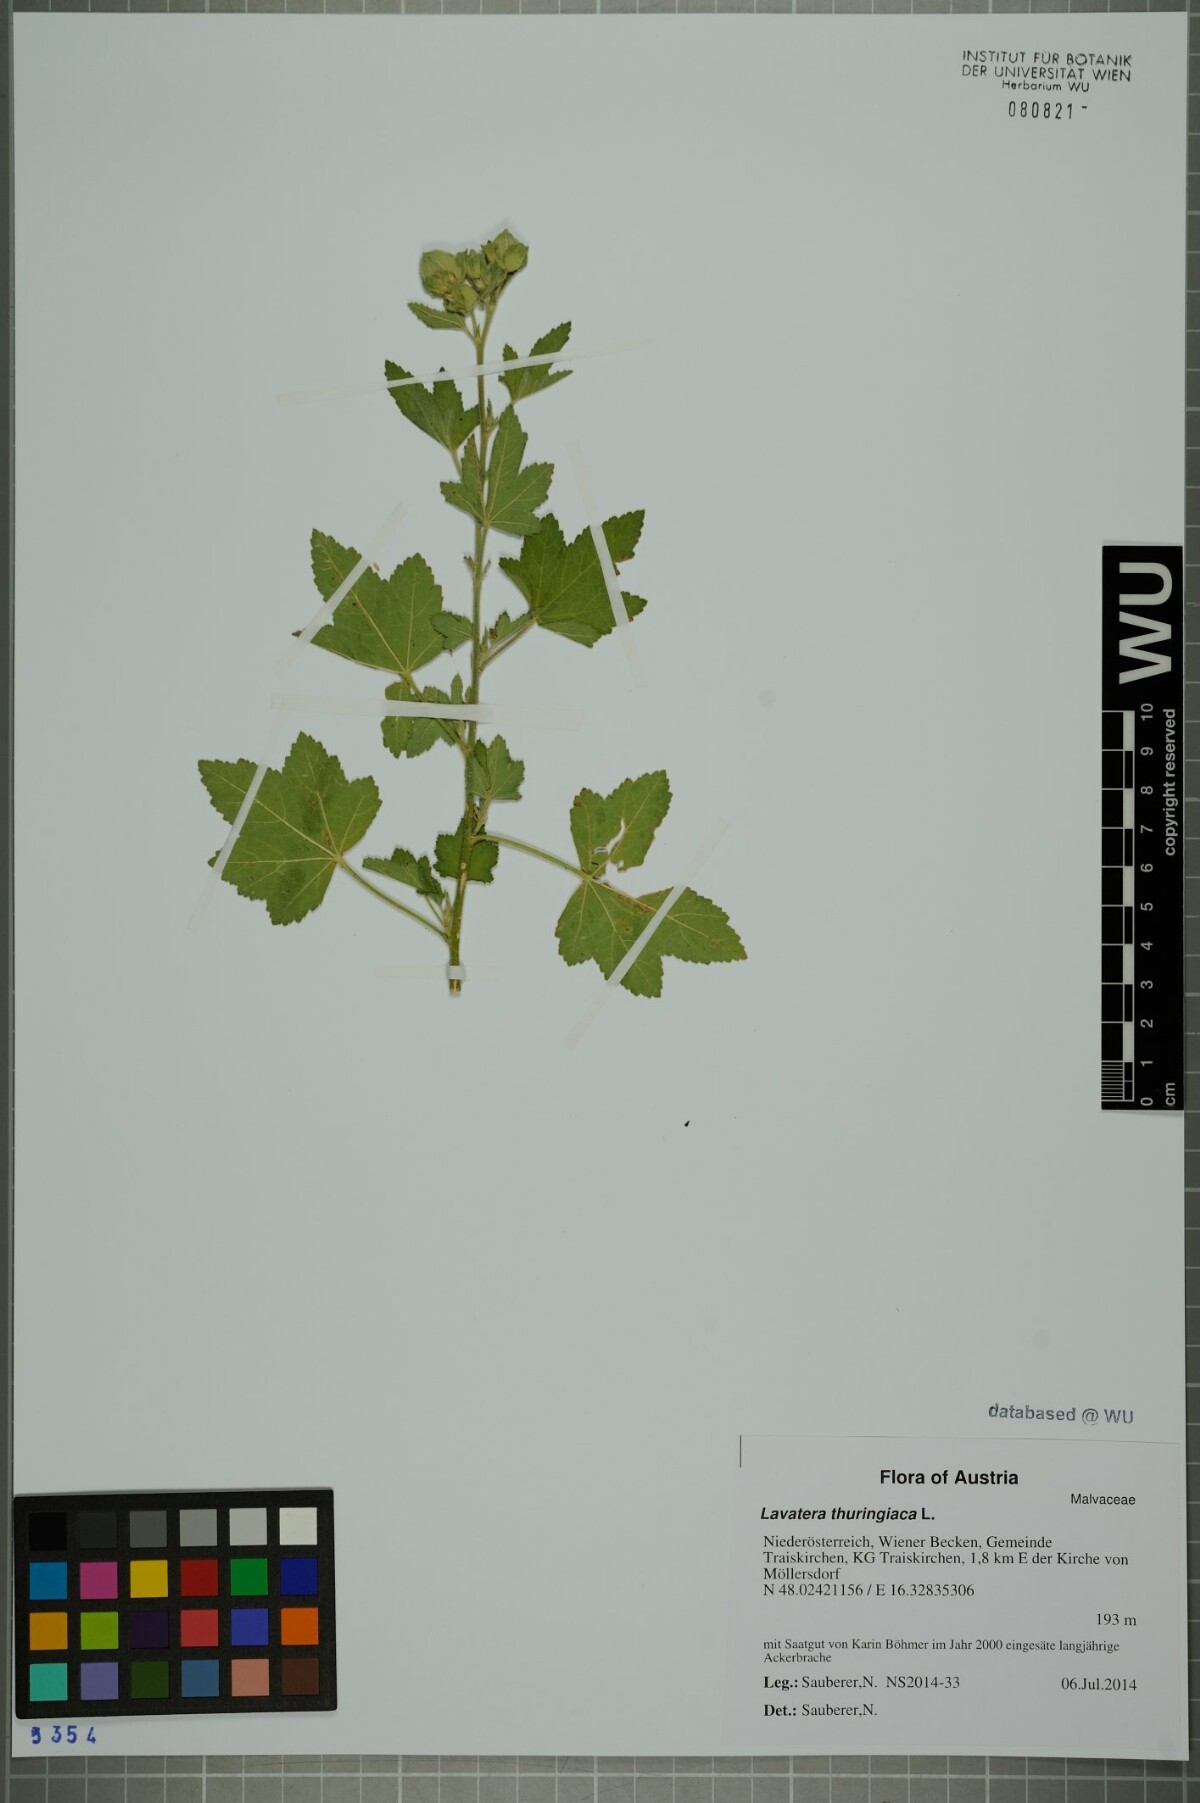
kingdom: Plantae
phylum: Tracheophyta
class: Magnoliopsida
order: Malvales
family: Malvaceae
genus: Malva
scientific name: Malva thuringiaca
